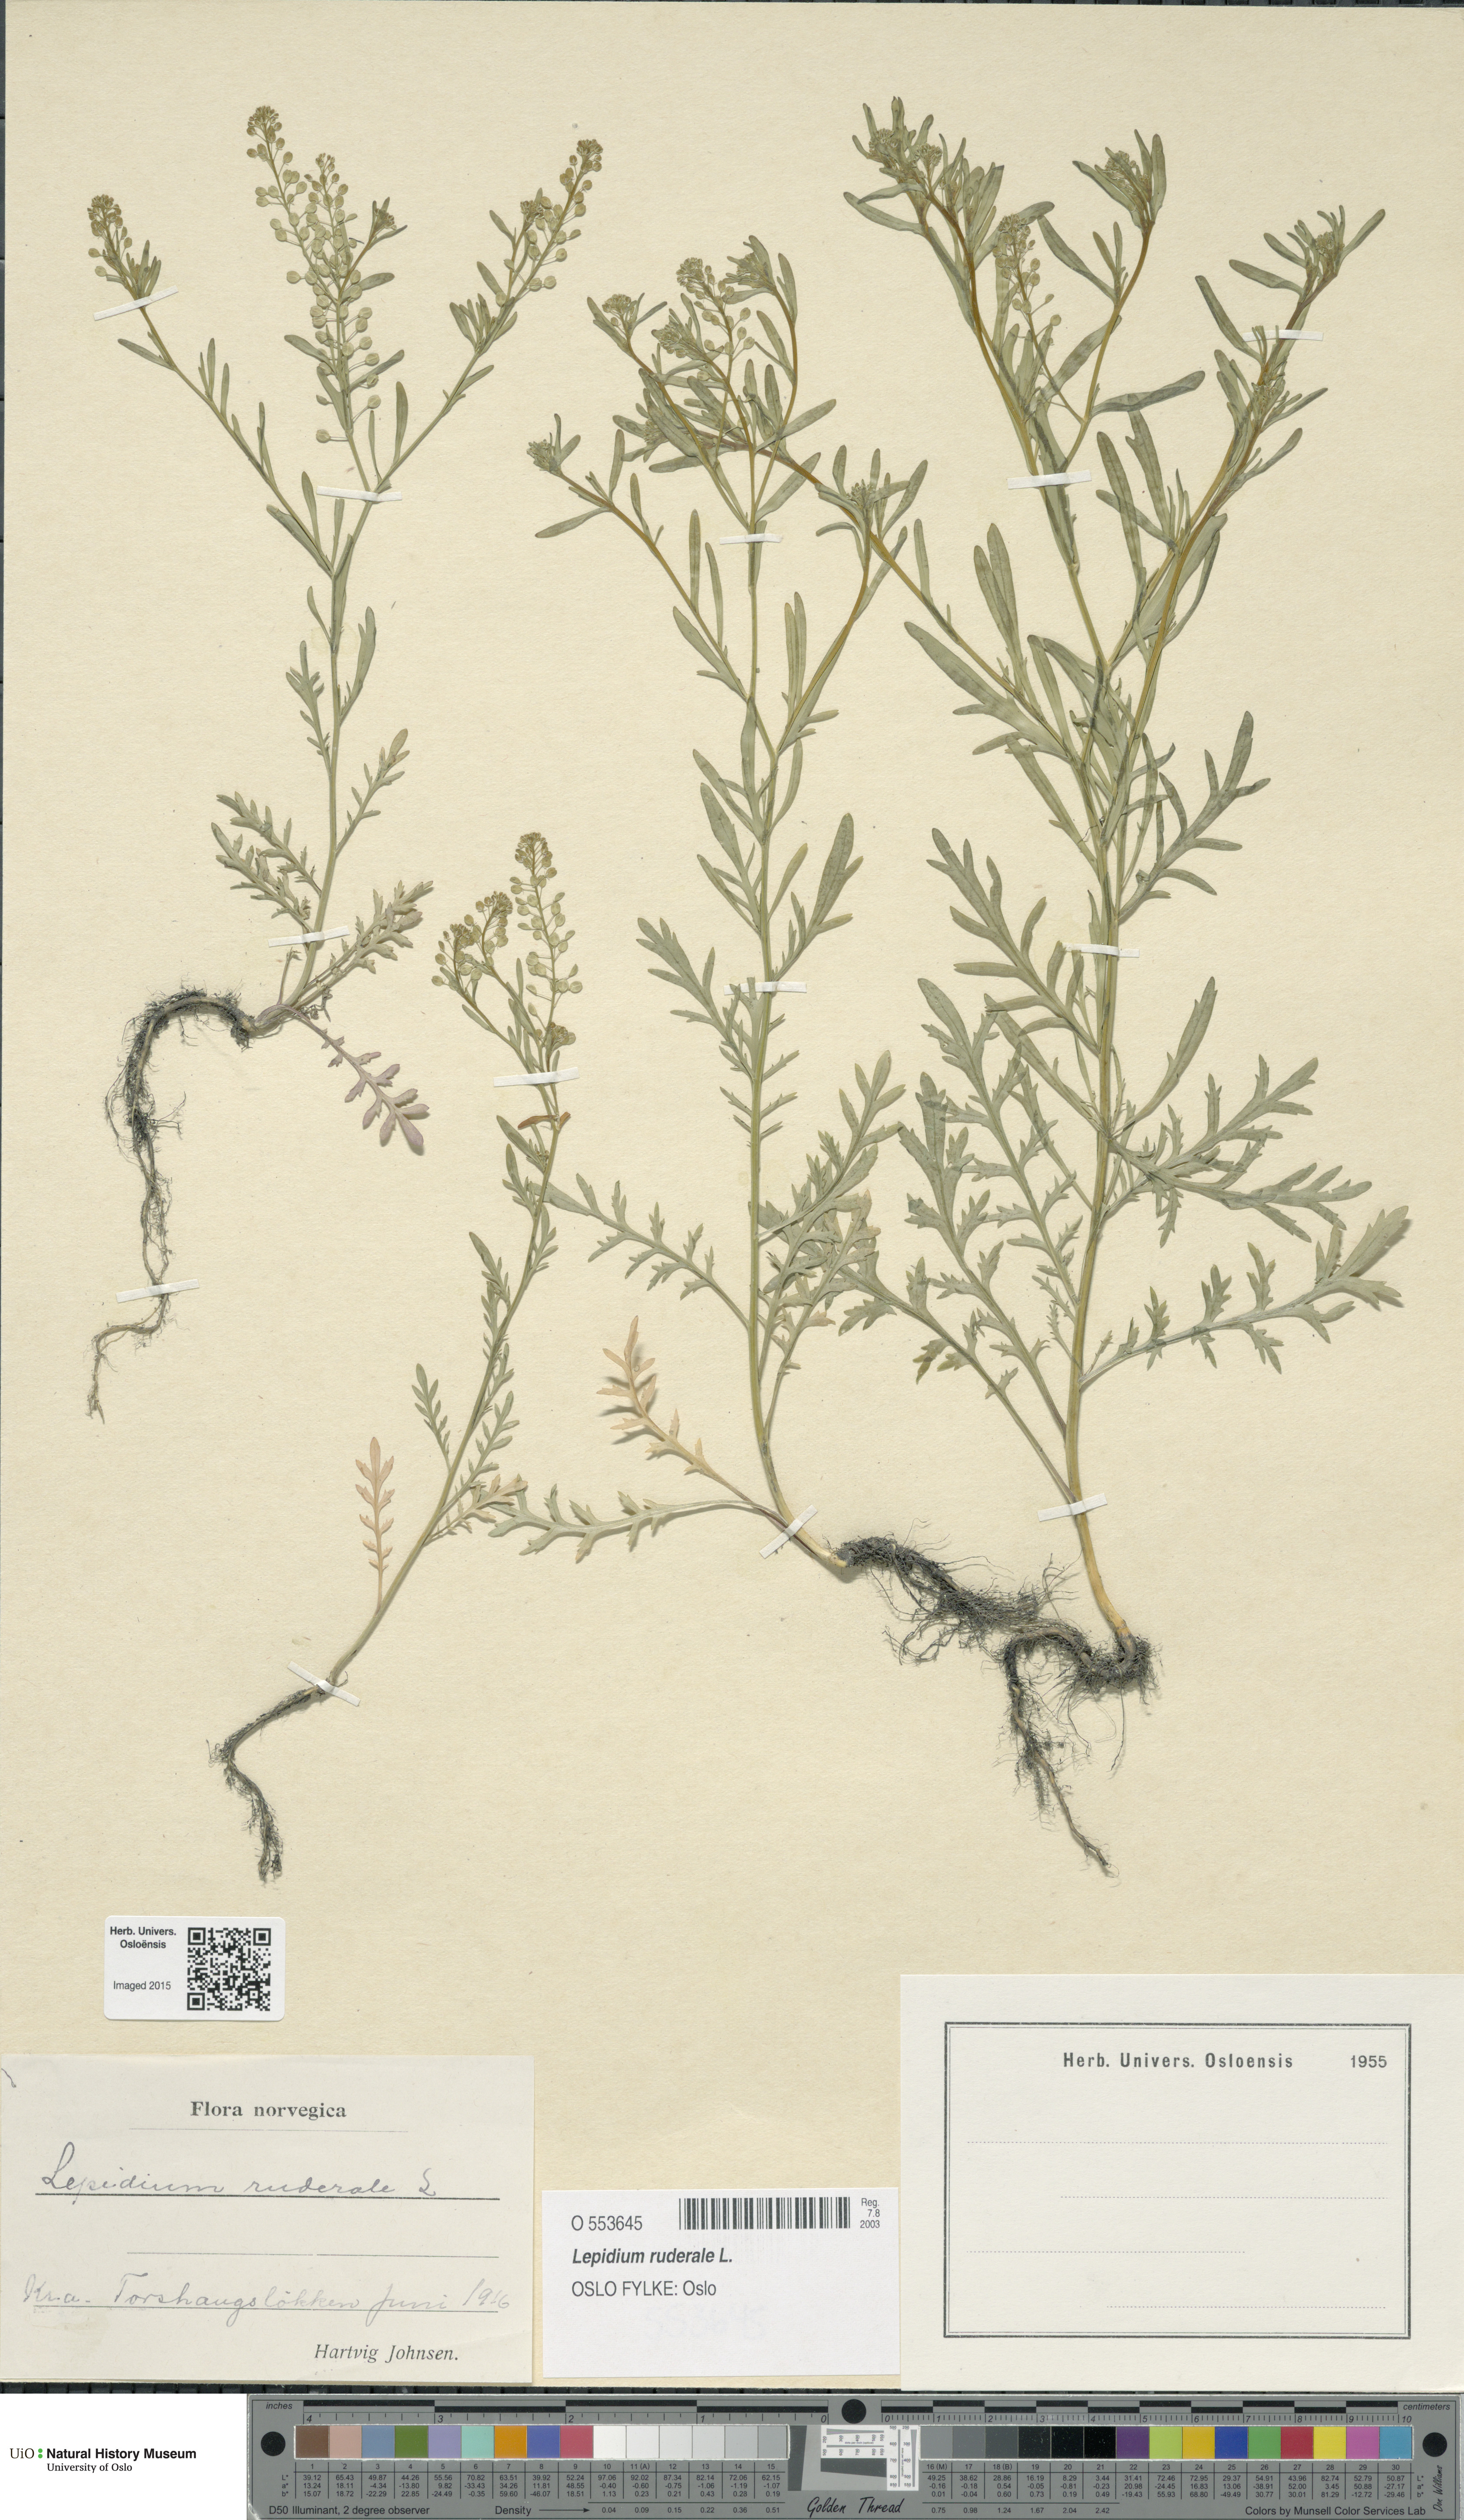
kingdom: Plantae
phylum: Tracheophyta
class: Magnoliopsida
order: Brassicales
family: Brassicaceae
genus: Lepidium
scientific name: Lepidium ruderale
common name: Narrow-leaved pepperwort
